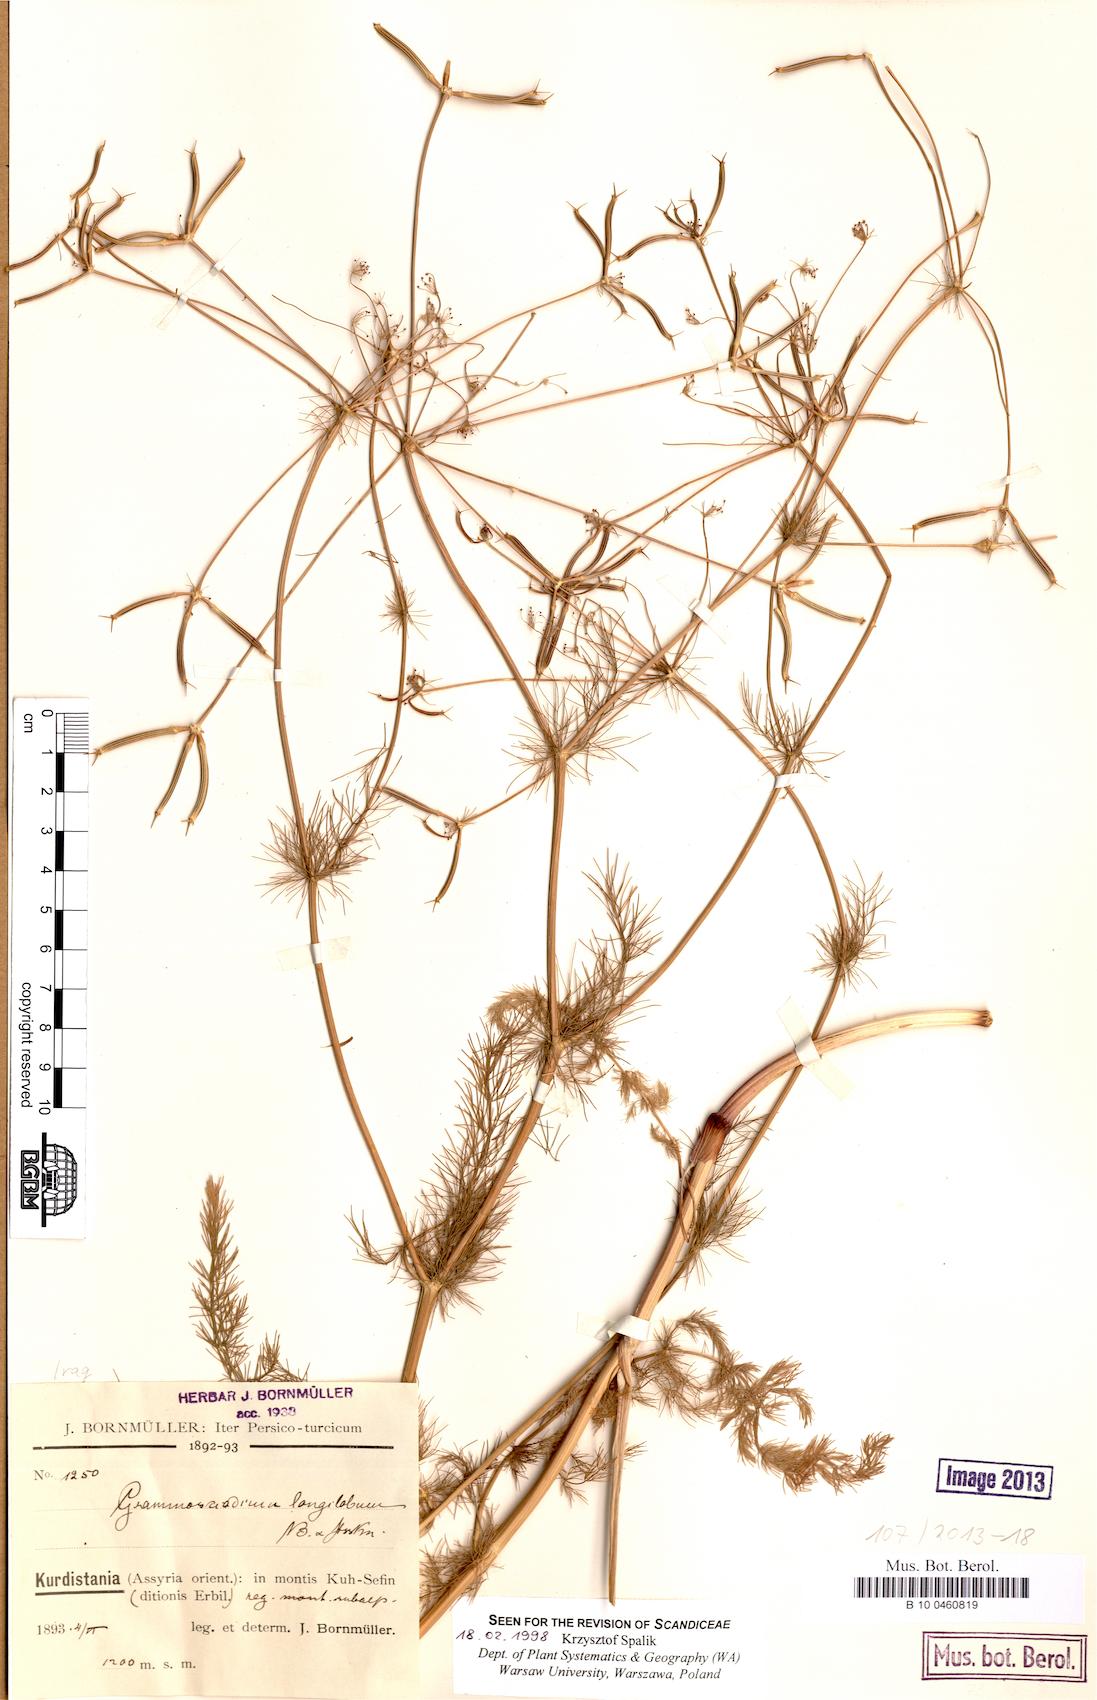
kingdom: Plantae
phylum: Tracheophyta
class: Magnoliopsida
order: Apiales
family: Apiaceae
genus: Grammosciadium
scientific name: Grammosciadium scabridum
